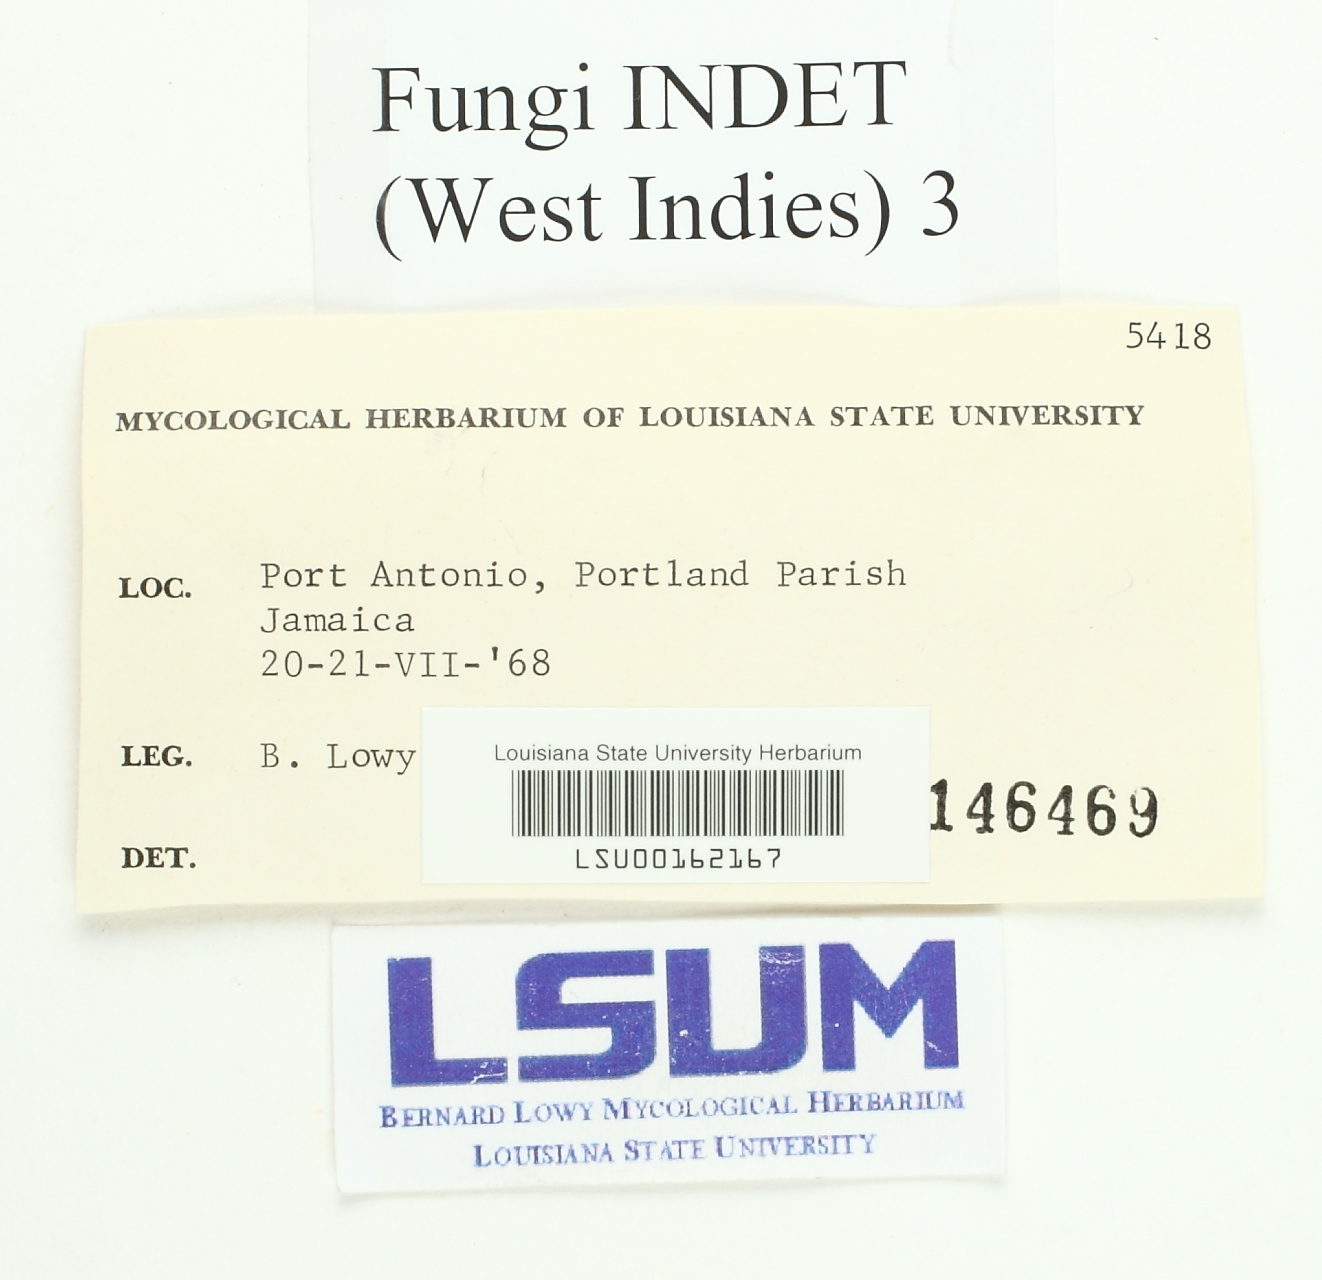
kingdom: Fungi
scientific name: Fungi
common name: Fungi
